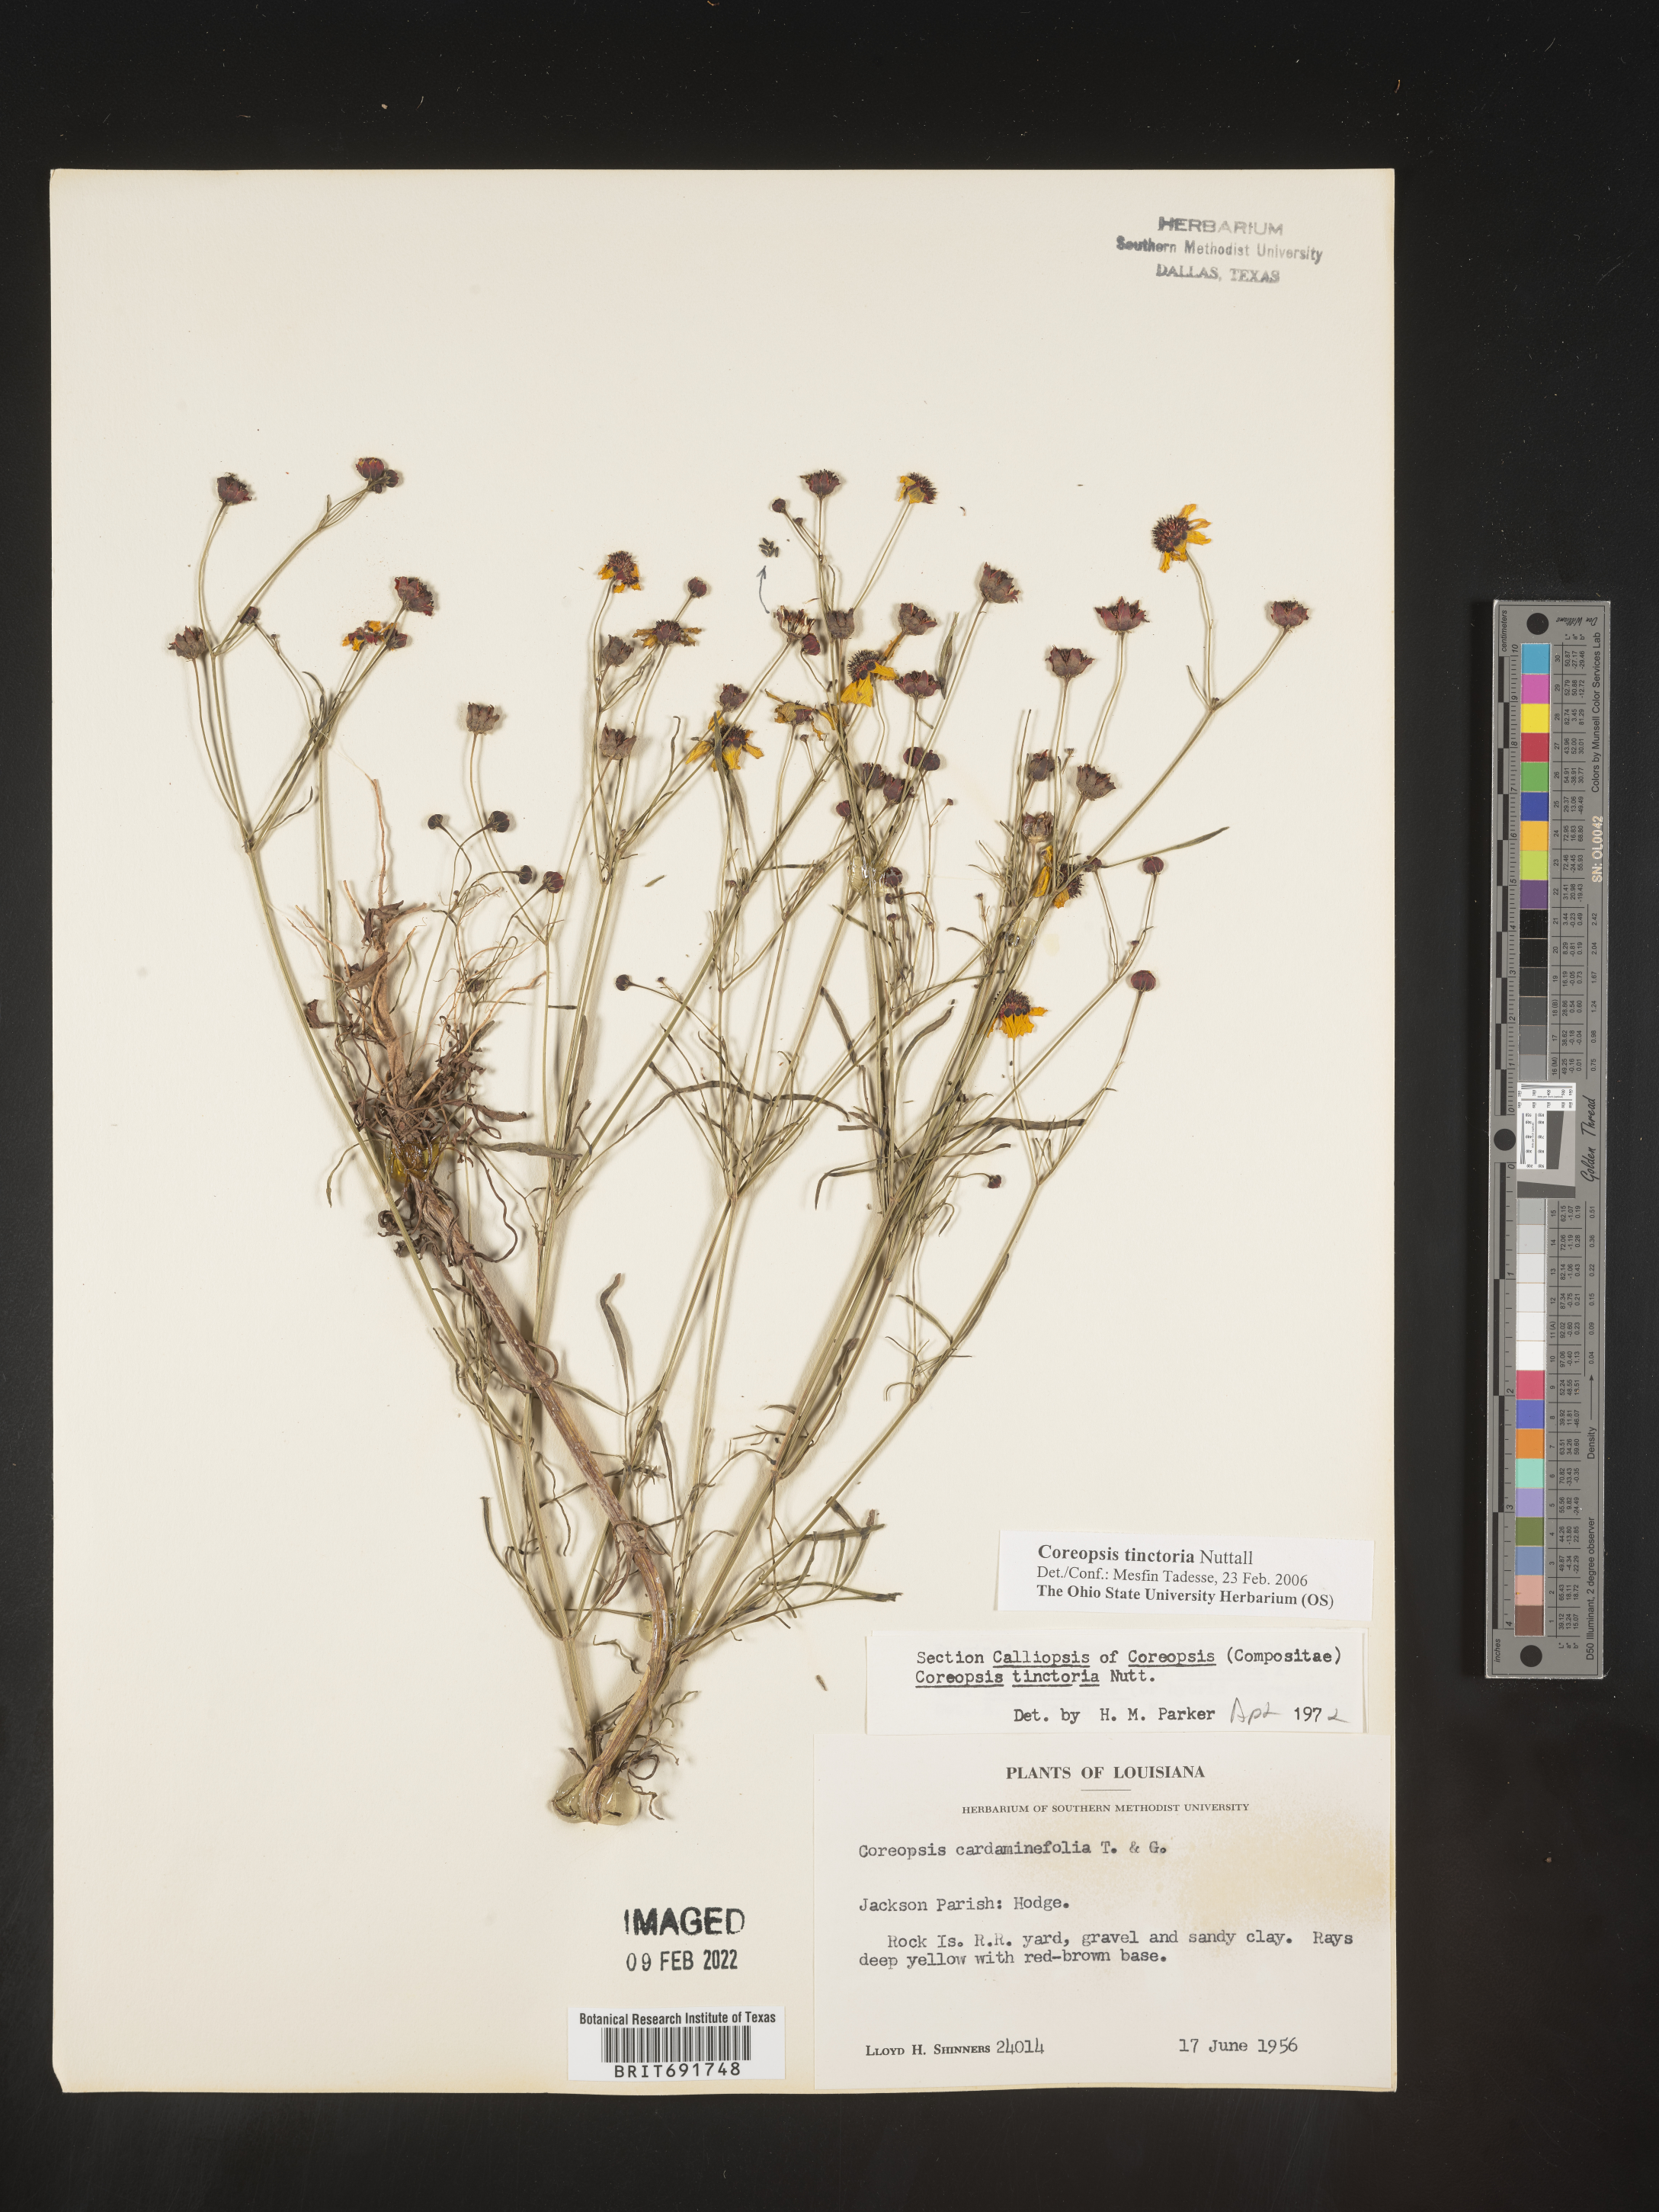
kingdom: Plantae
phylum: Tracheophyta
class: Magnoliopsida
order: Asterales
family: Asteraceae
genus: Coreopsis
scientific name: Coreopsis tinctoria
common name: Garden tickseed
